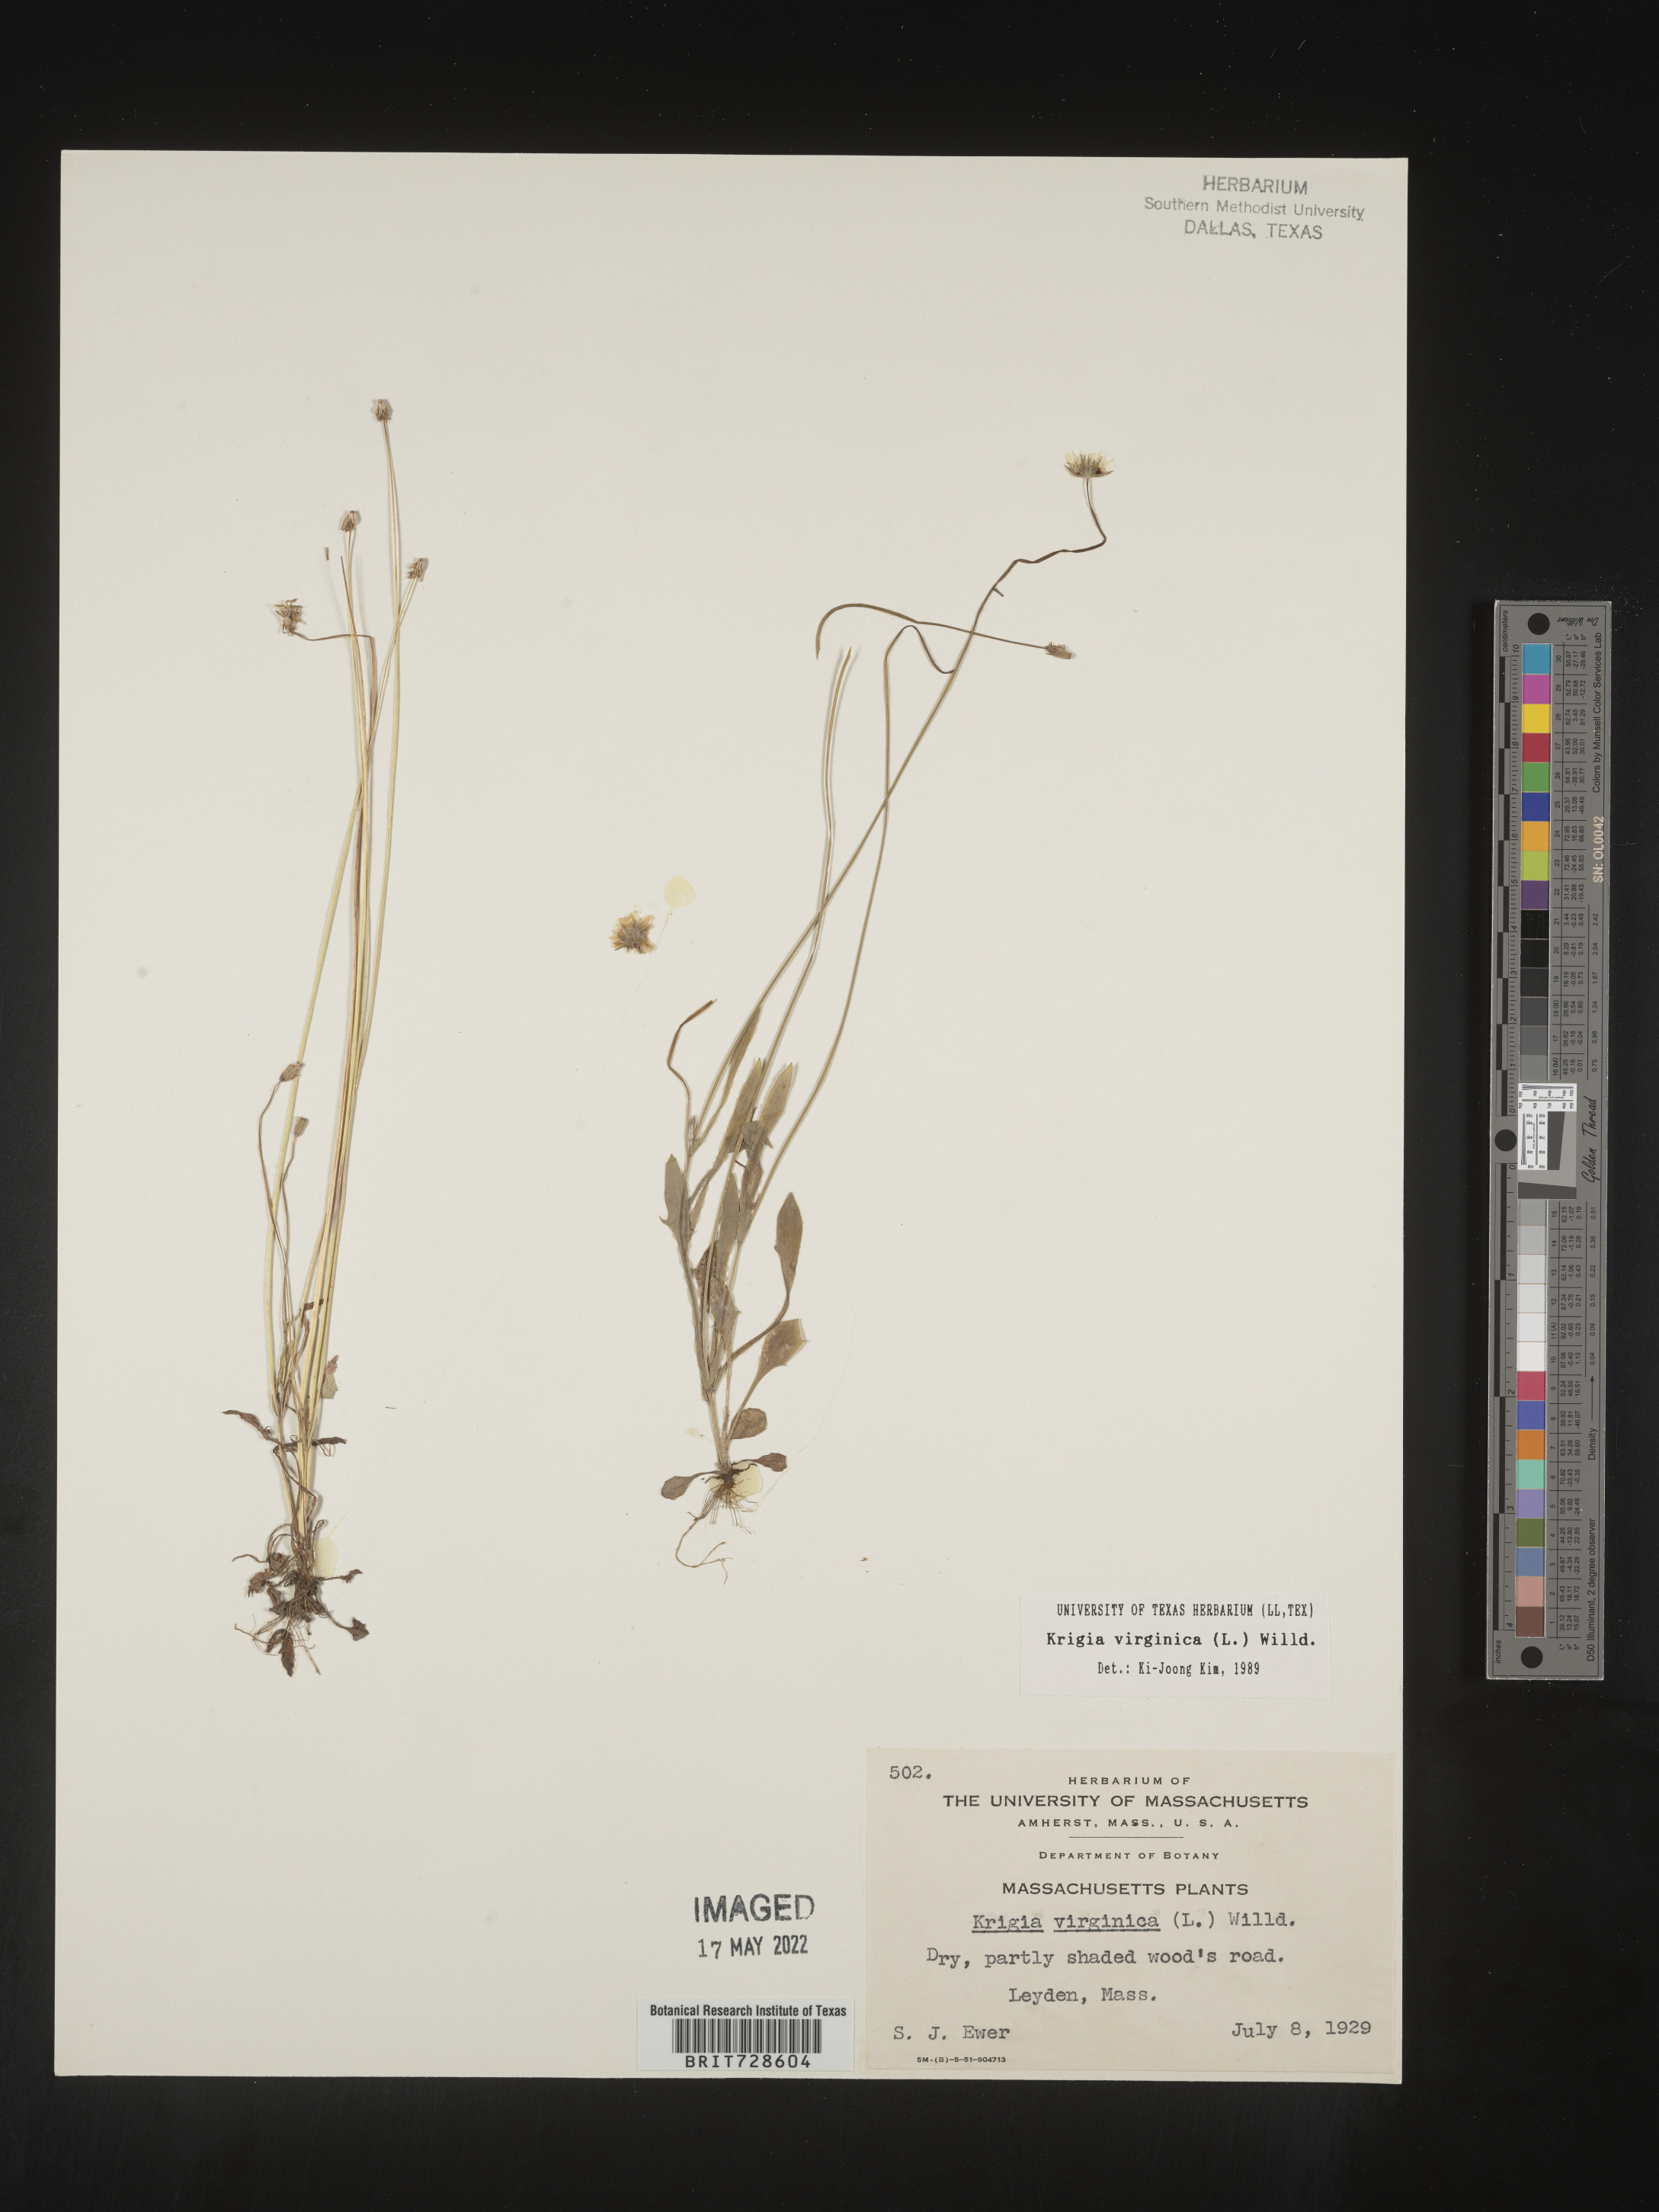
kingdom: Plantae
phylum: Tracheophyta
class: Magnoliopsida
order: Asterales
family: Asteraceae
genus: Krigia
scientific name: Krigia virginica
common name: Virginia dwarf-dandelion
